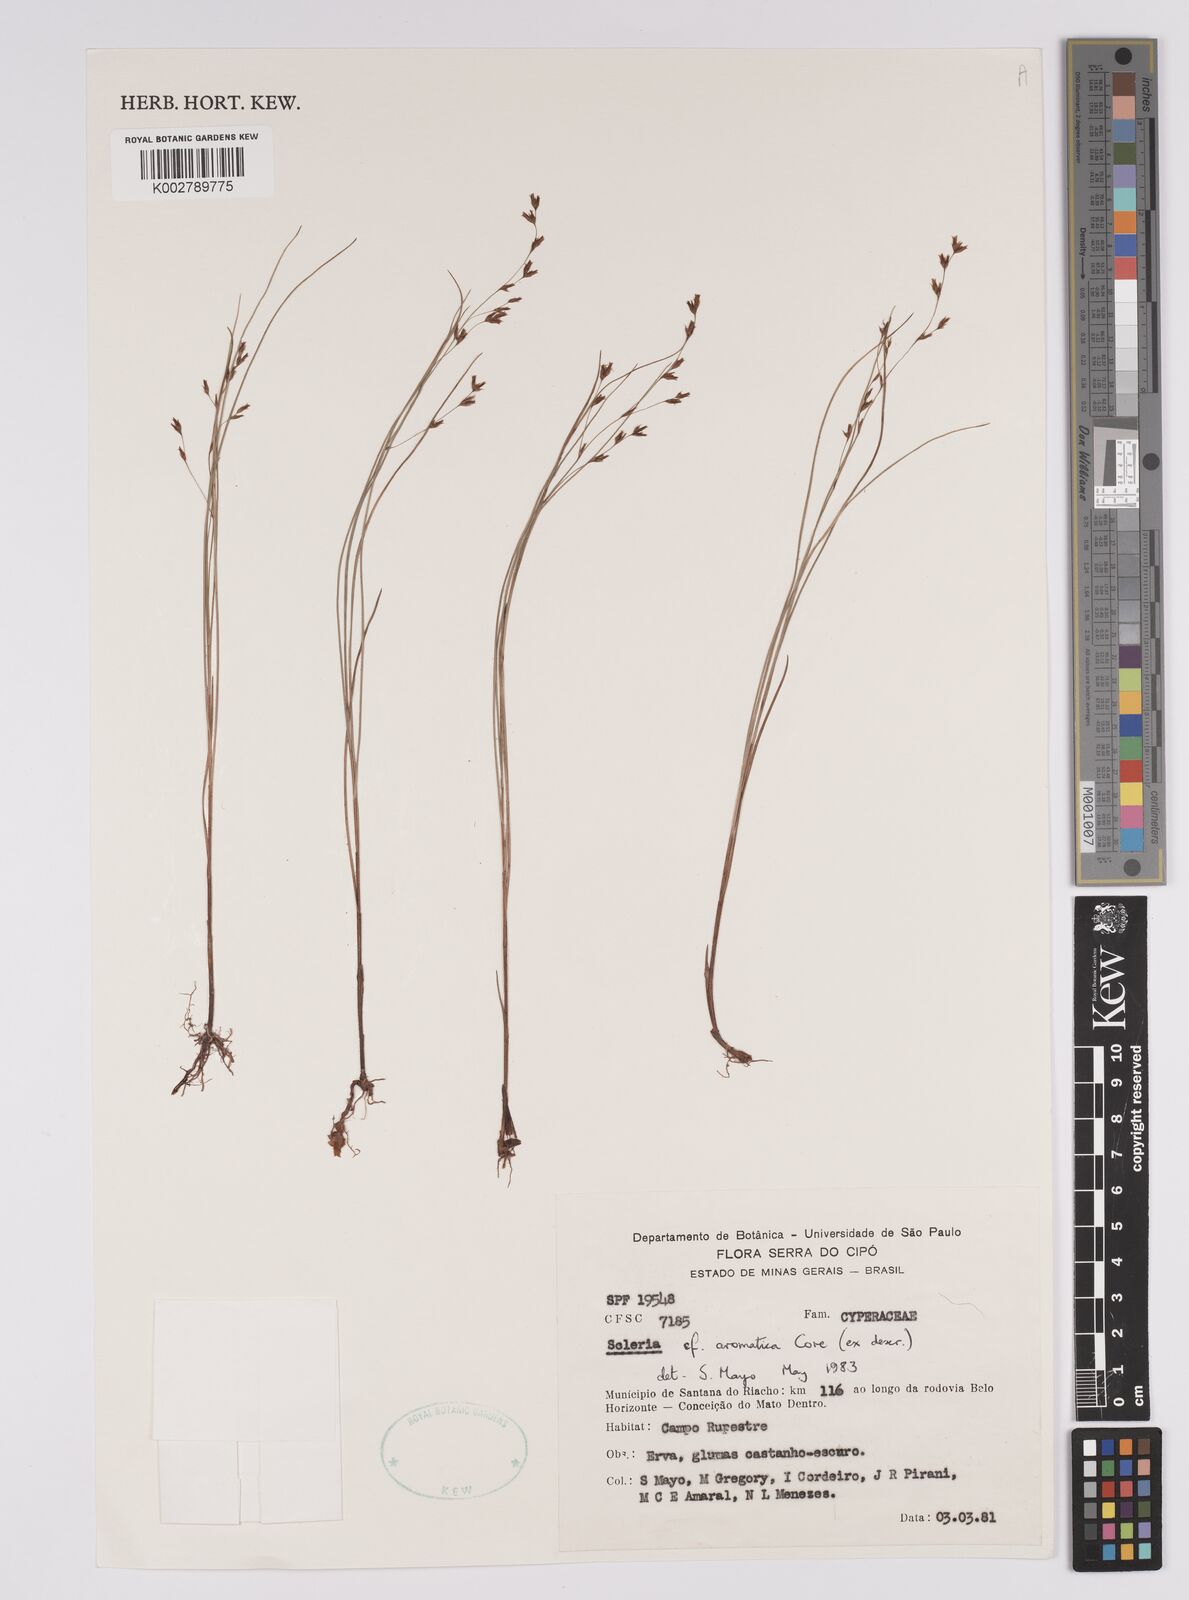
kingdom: Plantae
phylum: Tracheophyta
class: Liliopsida
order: Poales
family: Cyperaceae
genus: Scleria
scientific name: Scleria aromatica
